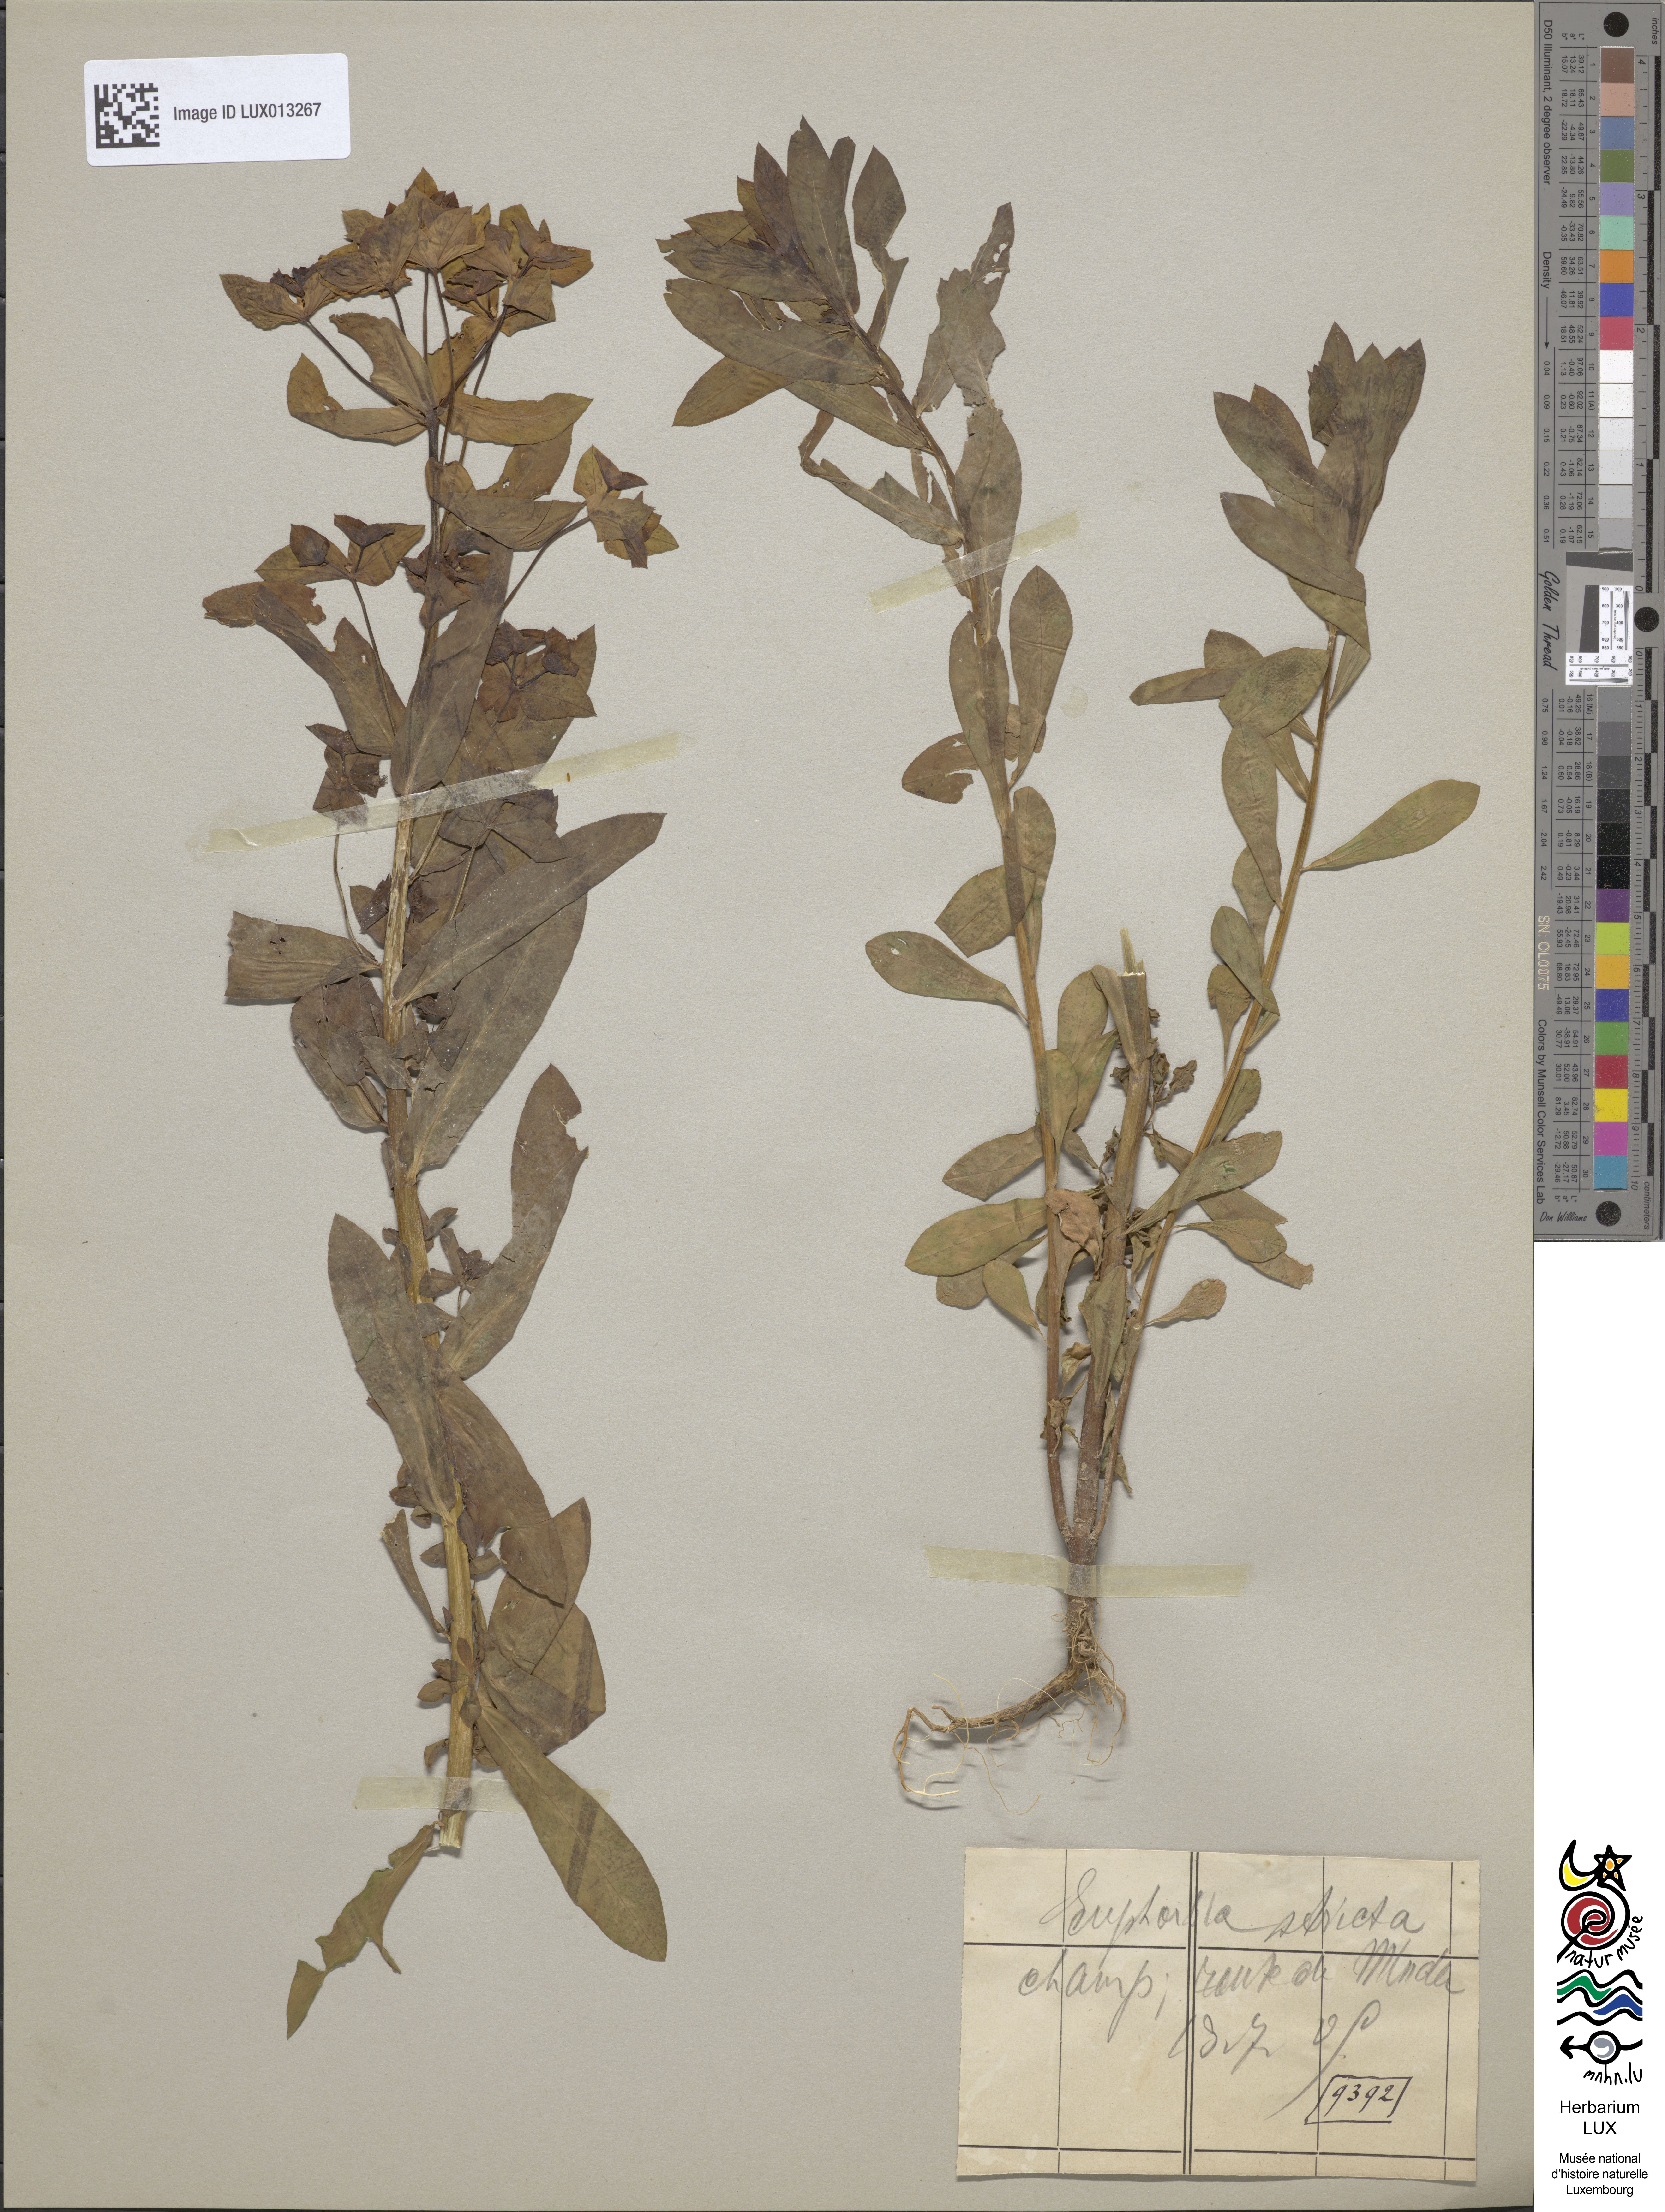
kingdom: Plantae
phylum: Tracheophyta
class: Magnoliopsida
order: Malpighiales
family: Euphorbiaceae
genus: Euphorbia
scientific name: Euphorbia stricta
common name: Upright spurge
